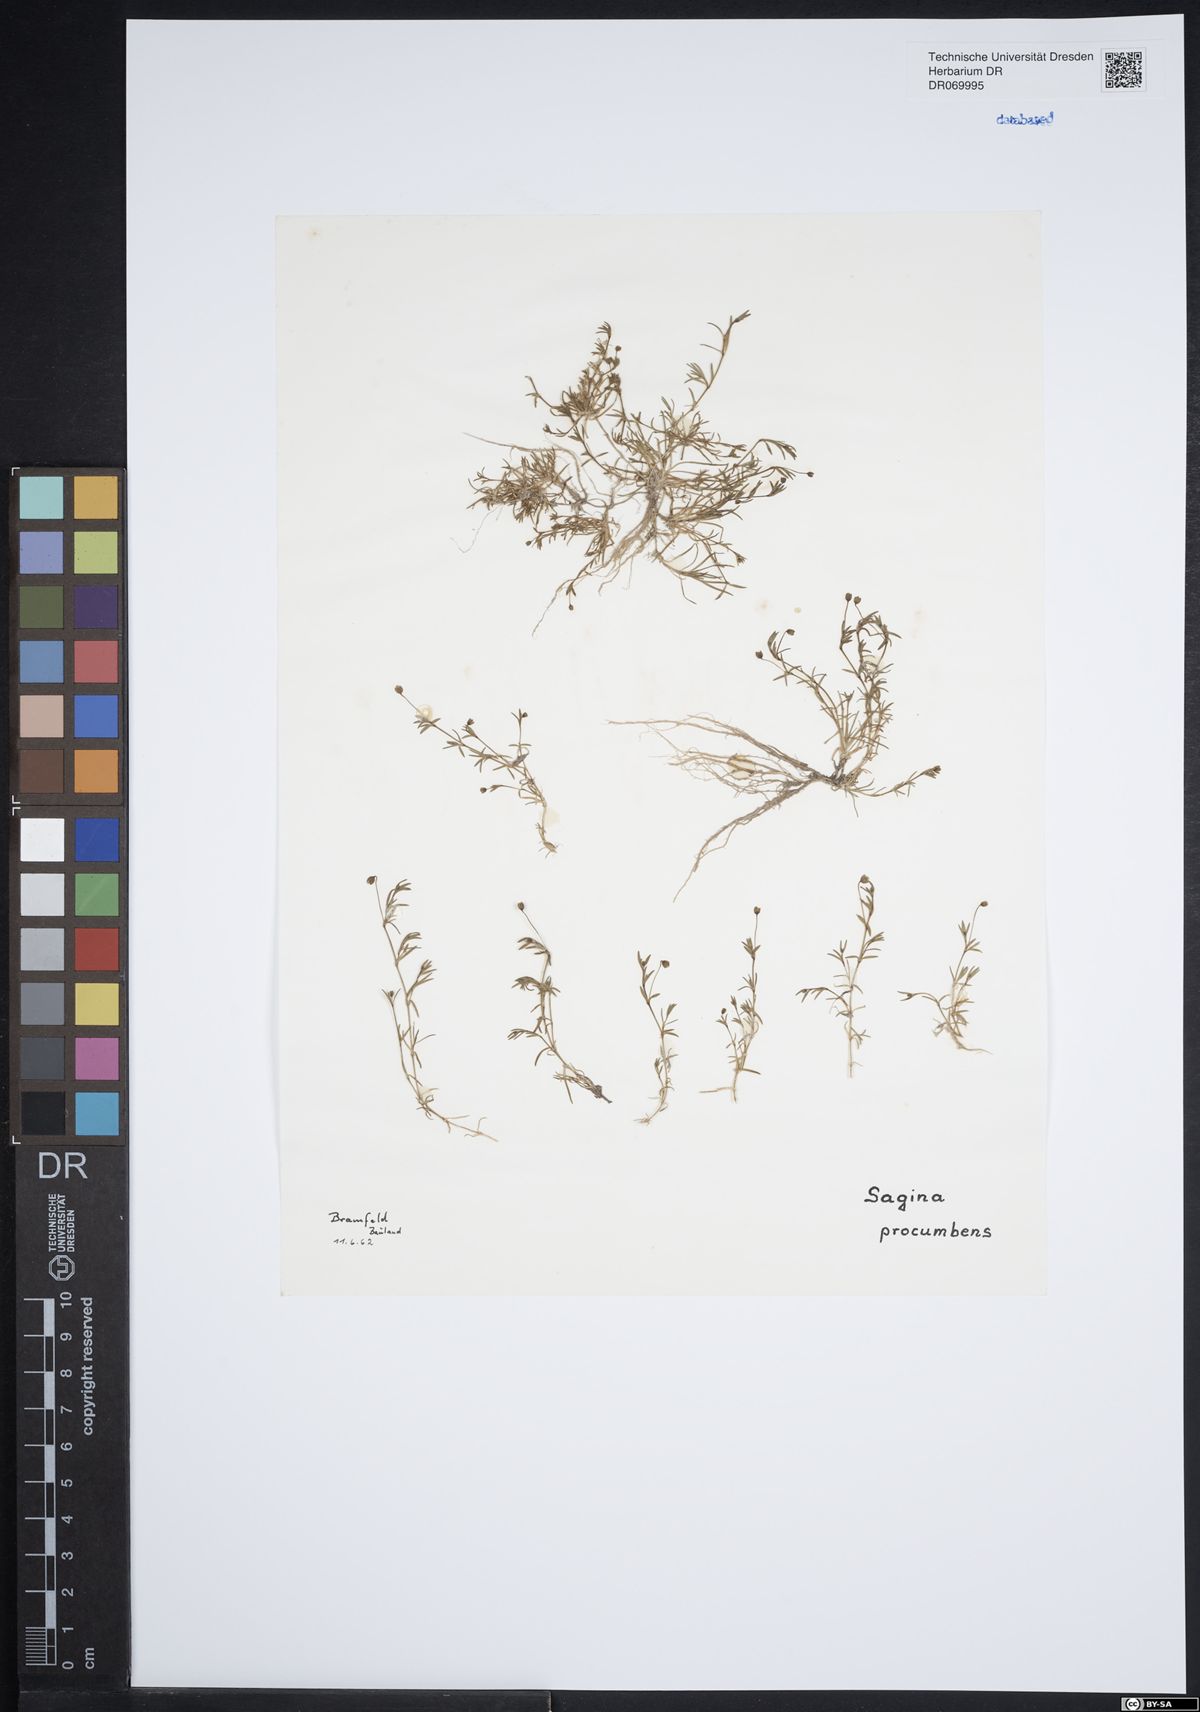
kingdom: Plantae
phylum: Tracheophyta
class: Magnoliopsida
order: Caryophyllales
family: Caryophyllaceae
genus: Sagina
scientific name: Sagina procumbens
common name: Procumbent pearlwort
